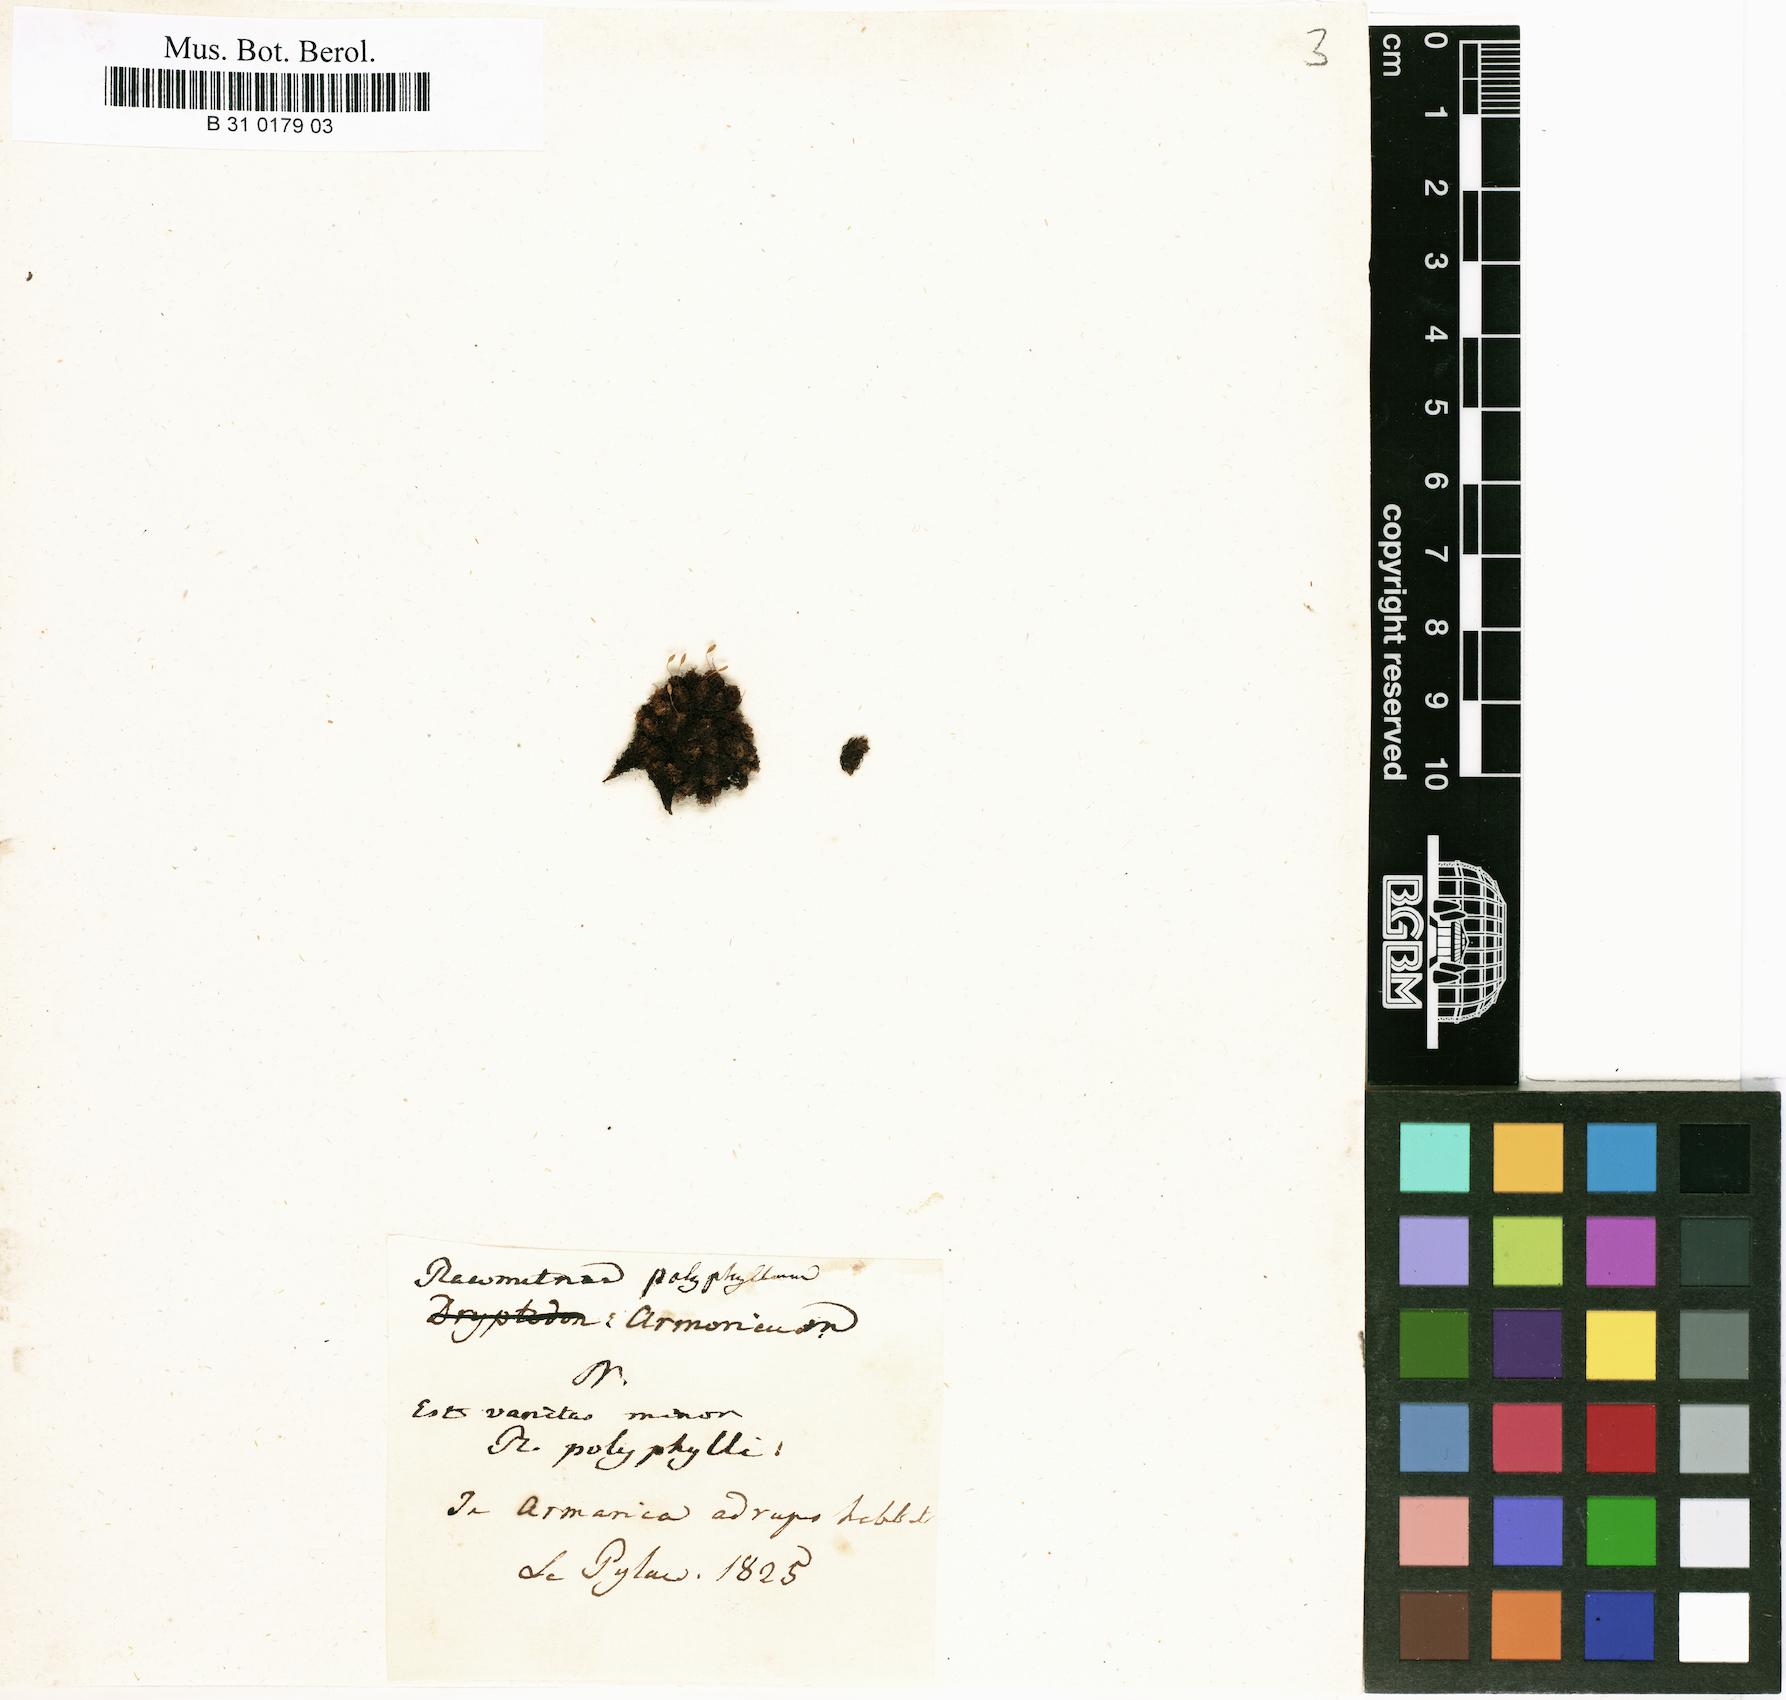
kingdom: Plantae
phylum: Bryophyta
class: Bryopsida
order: Grimmiales
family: Ptychomitriaceae
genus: Ptychomitrium
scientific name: Ptychomitrium polyphyllum
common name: Greater pincushion
